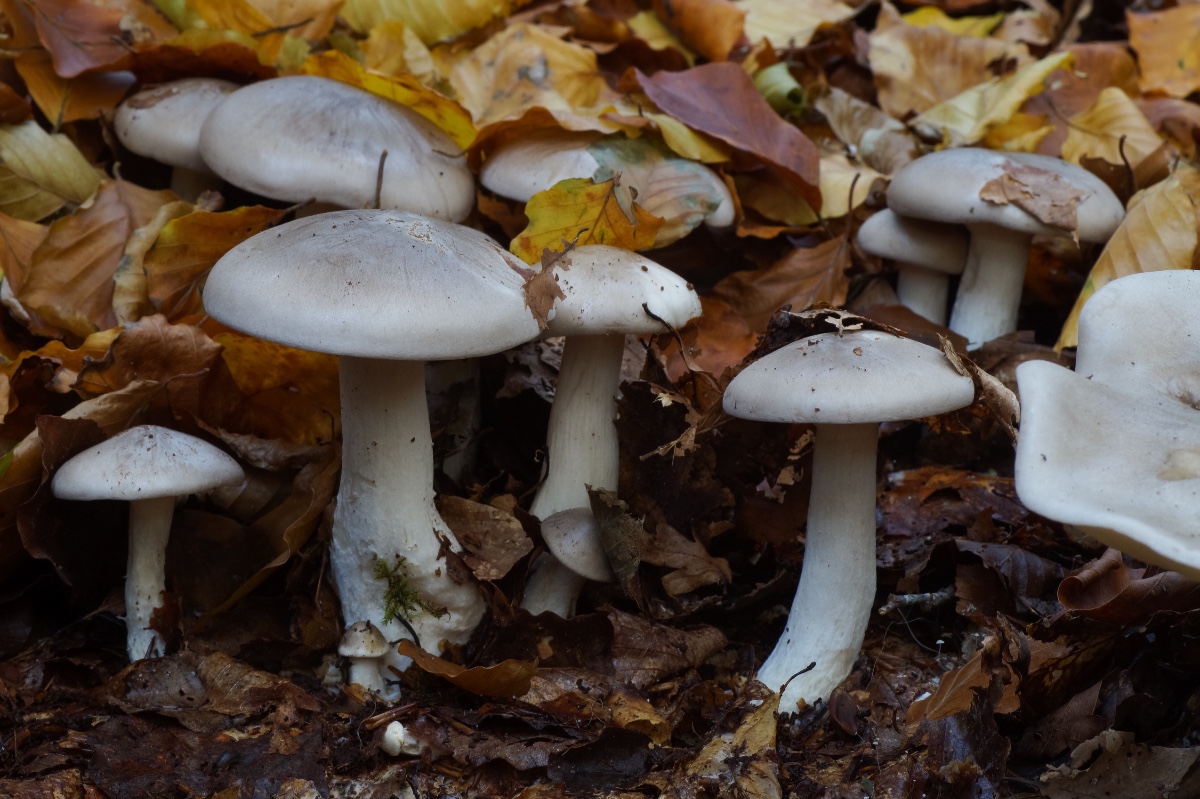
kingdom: Fungi
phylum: Basidiomycota
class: Agaricomycetes
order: Agaricales
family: Tricholomataceae
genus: Clitocybe
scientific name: Clitocybe nebularis
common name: tåge-tragthat
